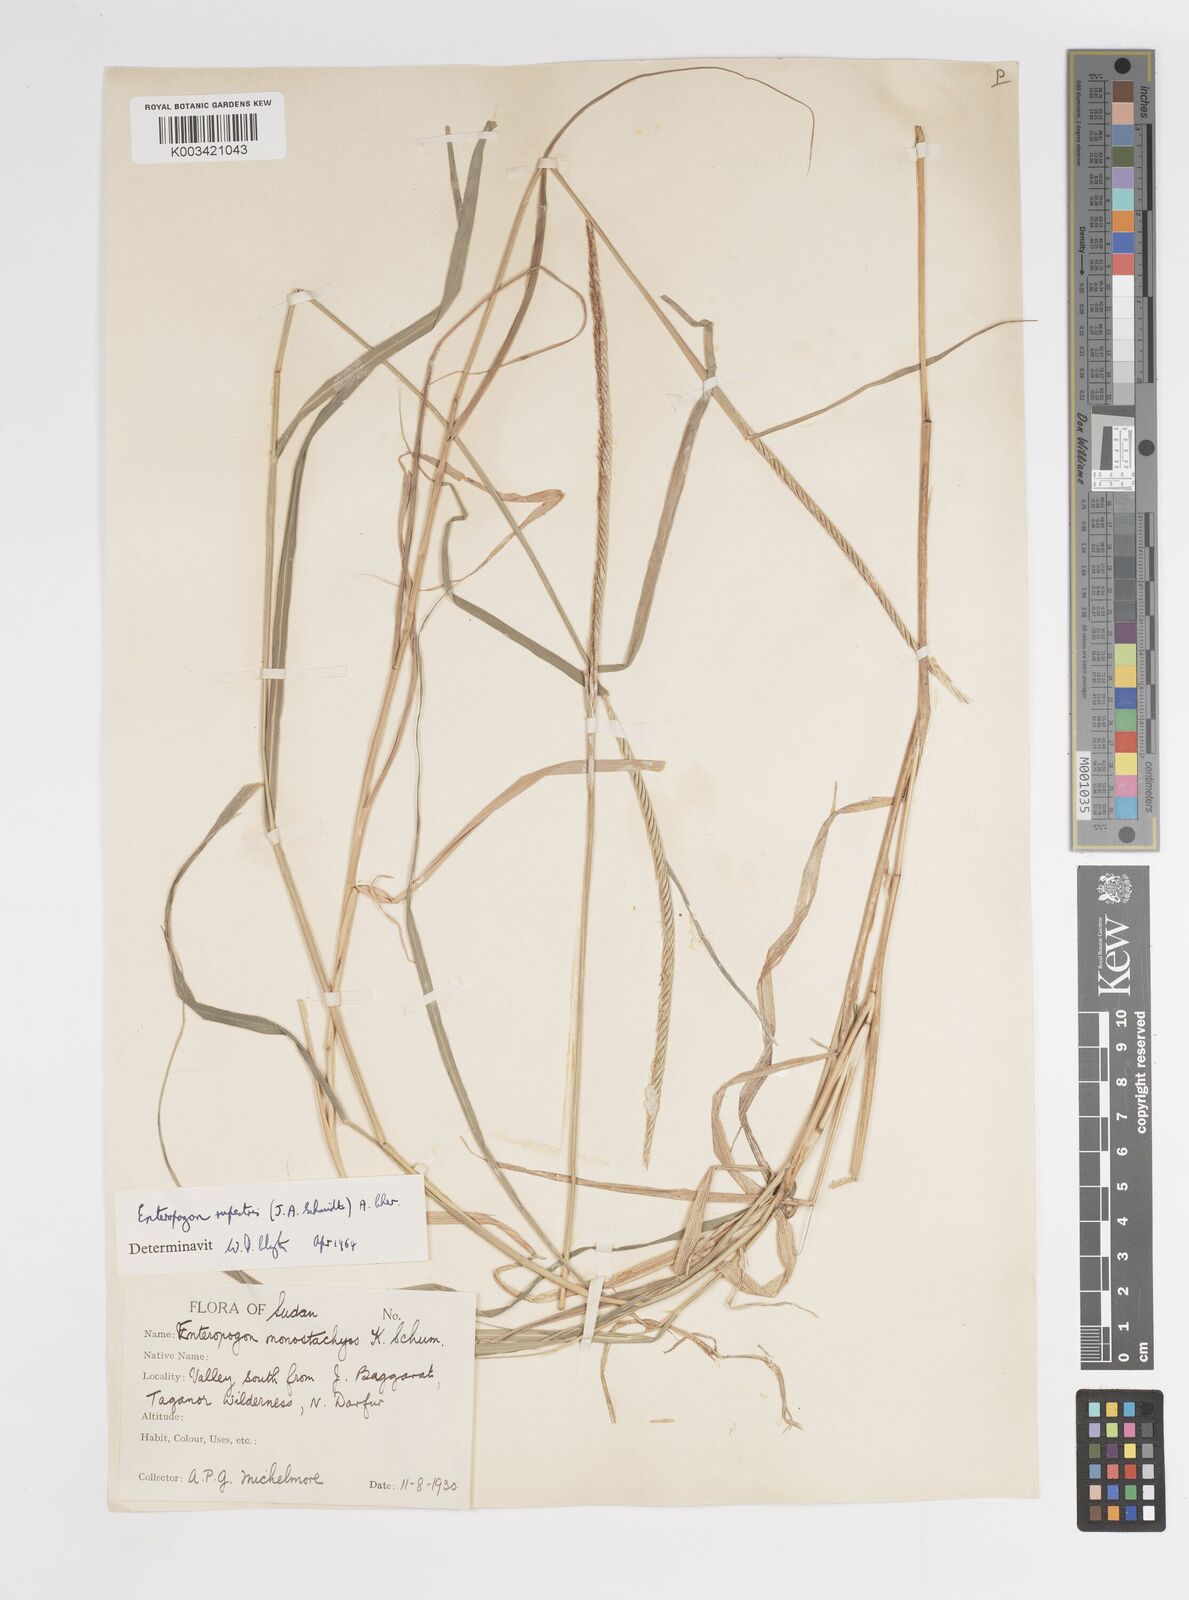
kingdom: Plantae
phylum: Tracheophyta
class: Liliopsida
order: Poales
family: Poaceae
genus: Enteropogon
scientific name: Enteropogon rupestris
